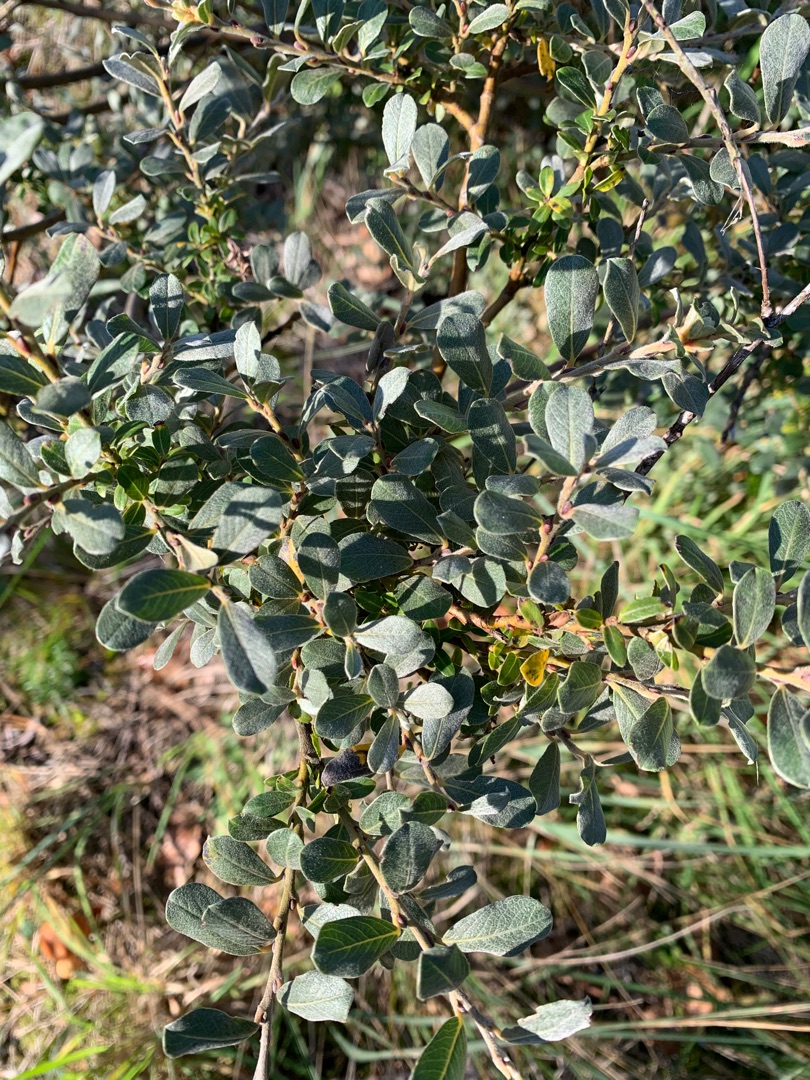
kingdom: Plantae
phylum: Tracheophyta
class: Magnoliopsida
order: Malpighiales
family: Salicaceae
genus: Salix
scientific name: Salix repens
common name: Krybende pil
